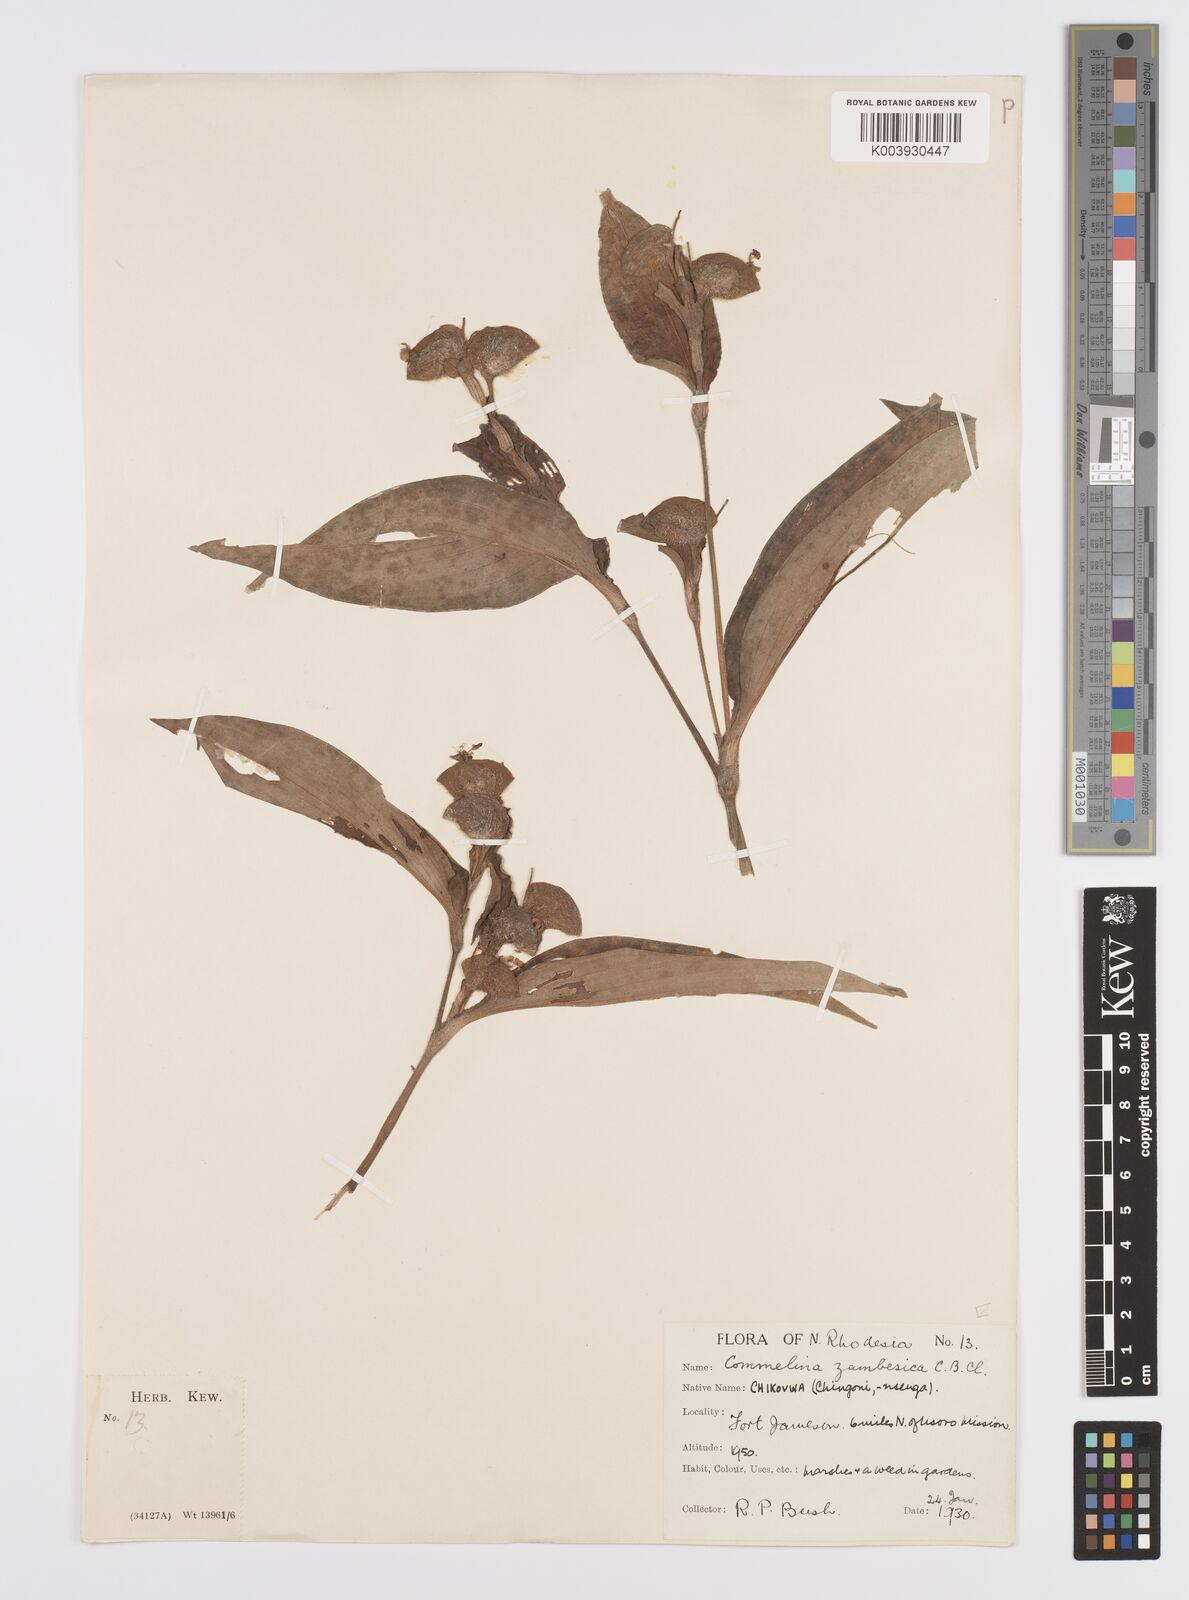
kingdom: Plantae
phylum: Tracheophyta
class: Liliopsida
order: Commelinales
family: Commelinaceae
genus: Commelina
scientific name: Commelina zambesica
